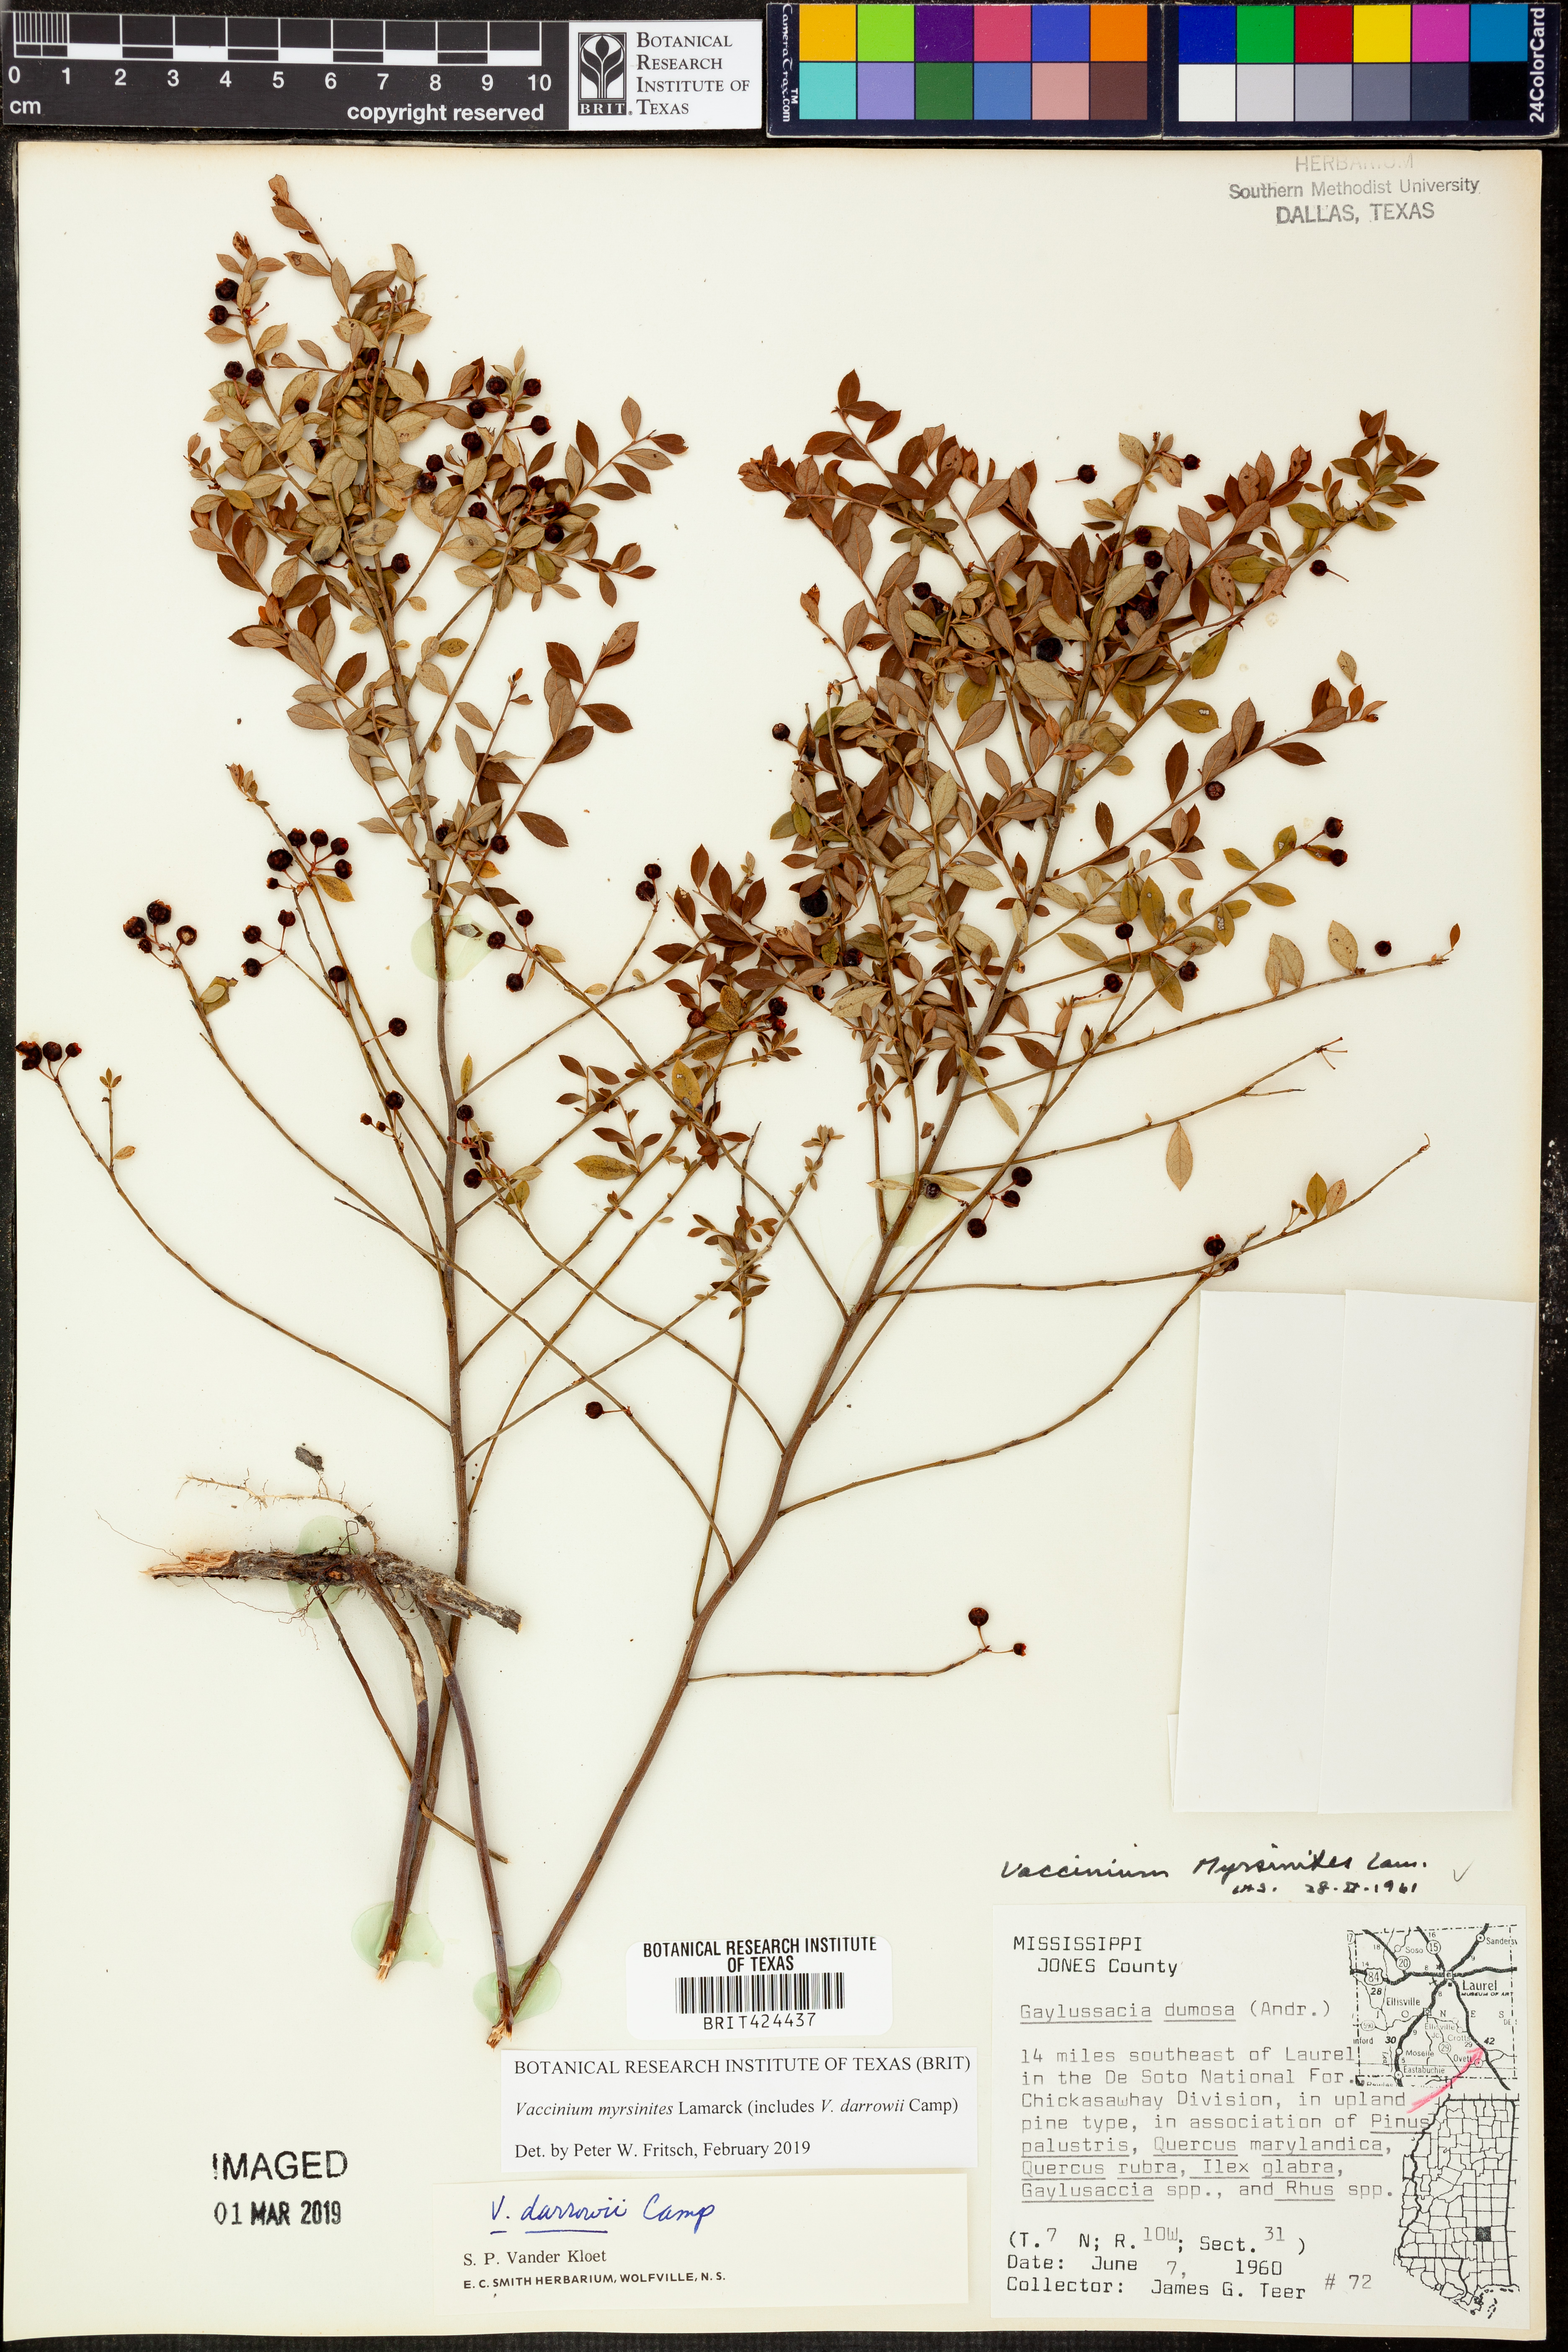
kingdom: Plantae
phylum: Tracheophyta
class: Magnoliopsida
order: Ericales
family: Ericaceae
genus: Vaccinium
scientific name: Vaccinium myrsinites
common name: Evergreen blueberry
